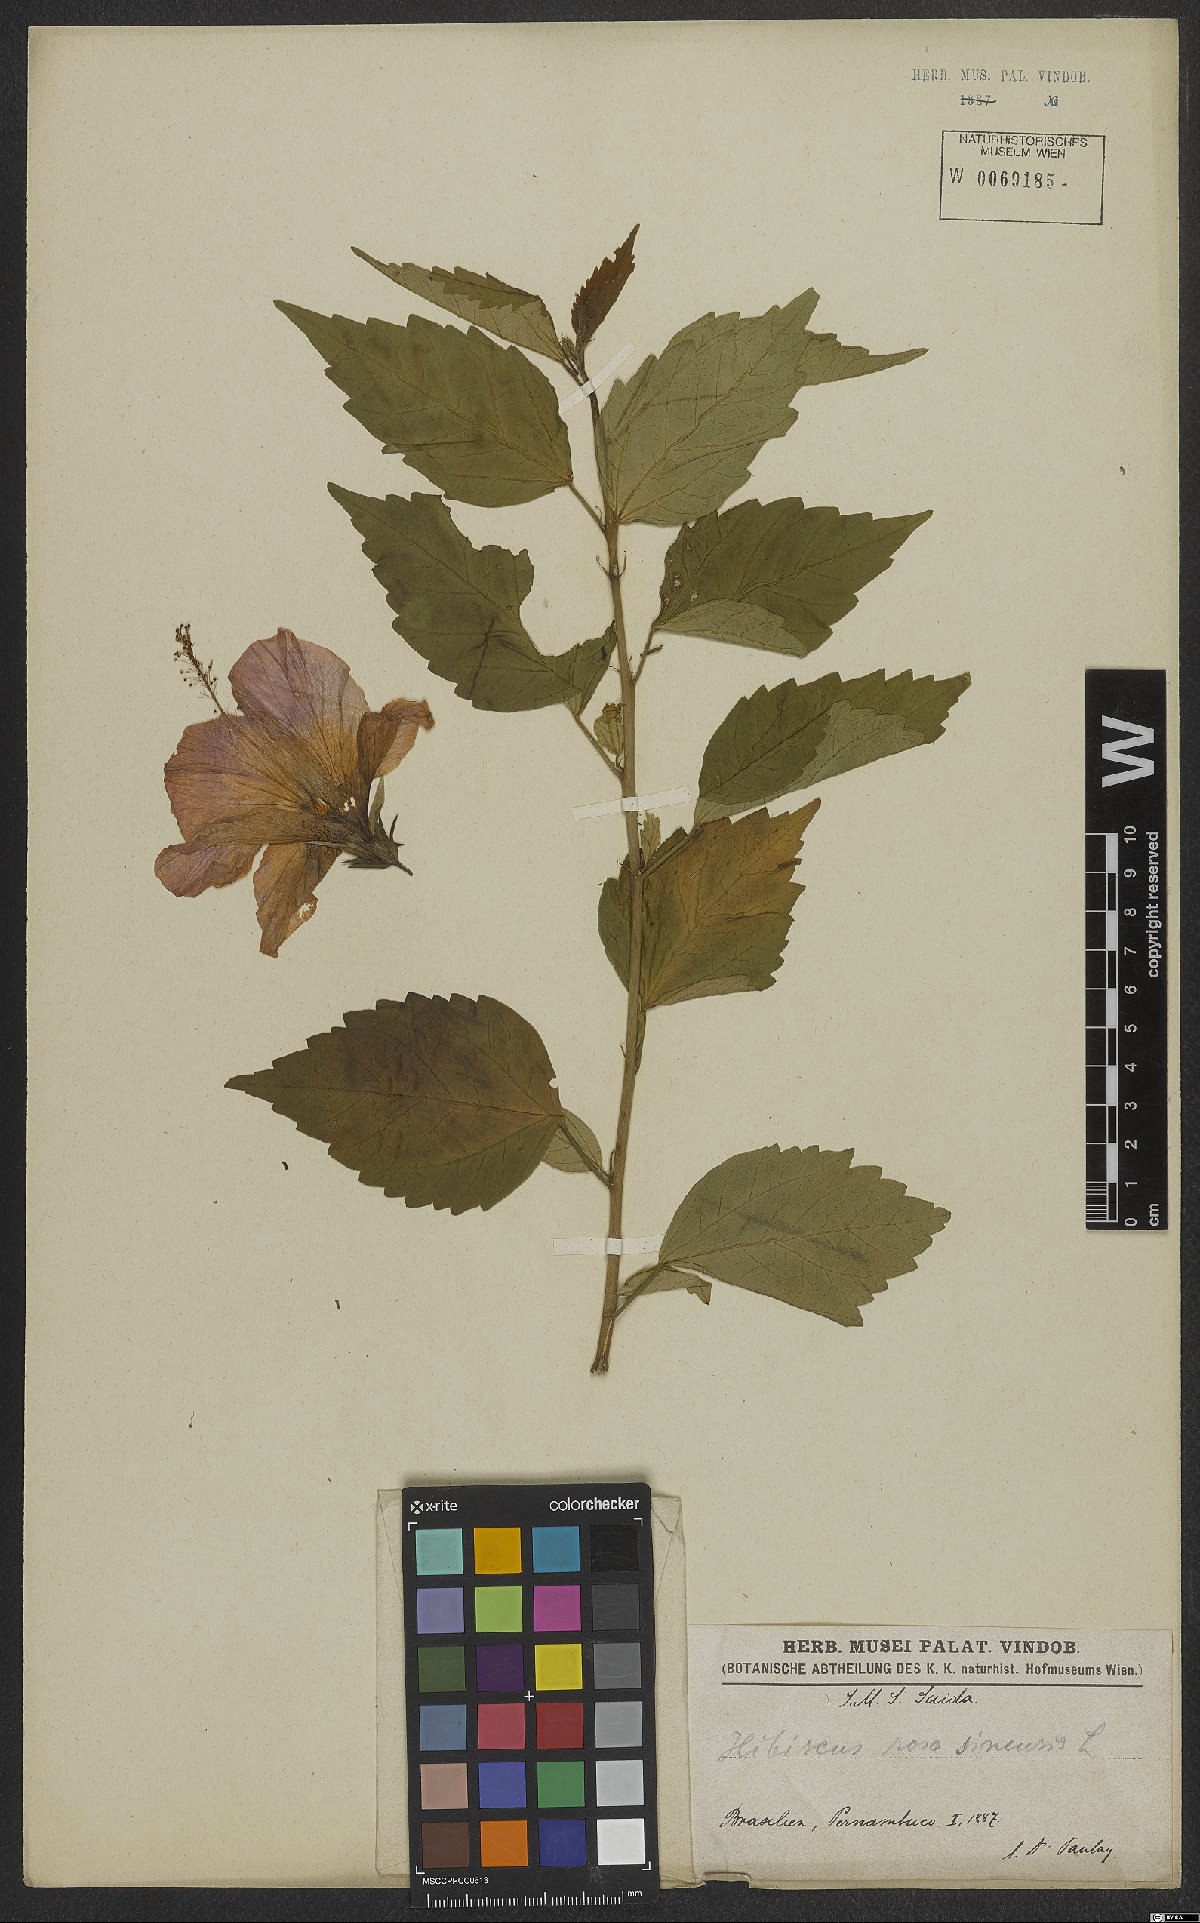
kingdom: Plantae
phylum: Tracheophyta
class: Magnoliopsida
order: Malvales
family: Malvaceae
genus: Hibiscus
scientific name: Hibiscus rosa-sinensis
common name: Hibiscus
